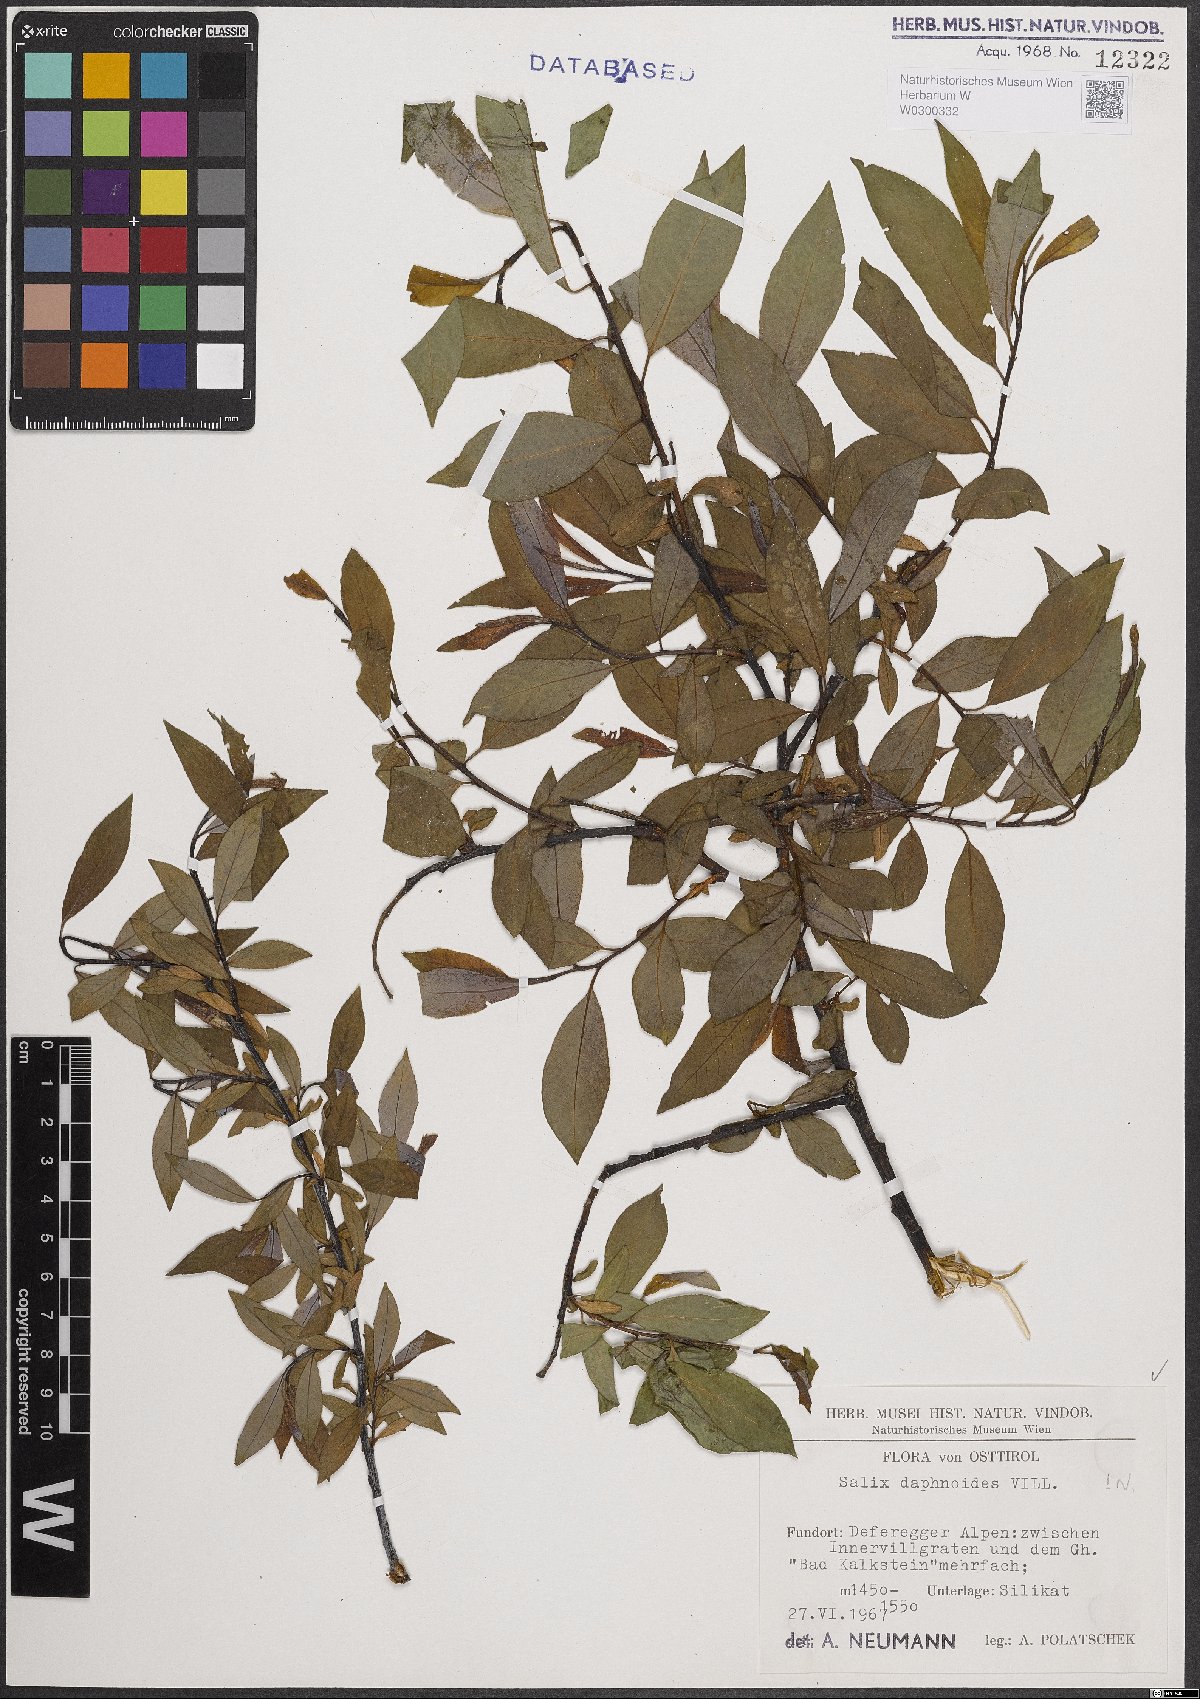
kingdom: Plantae
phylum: Tracheophyta
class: Magnoliopsida
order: Malpighiales
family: Salicaceae
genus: Salix
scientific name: Salix daphnoides
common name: European violet-willow
